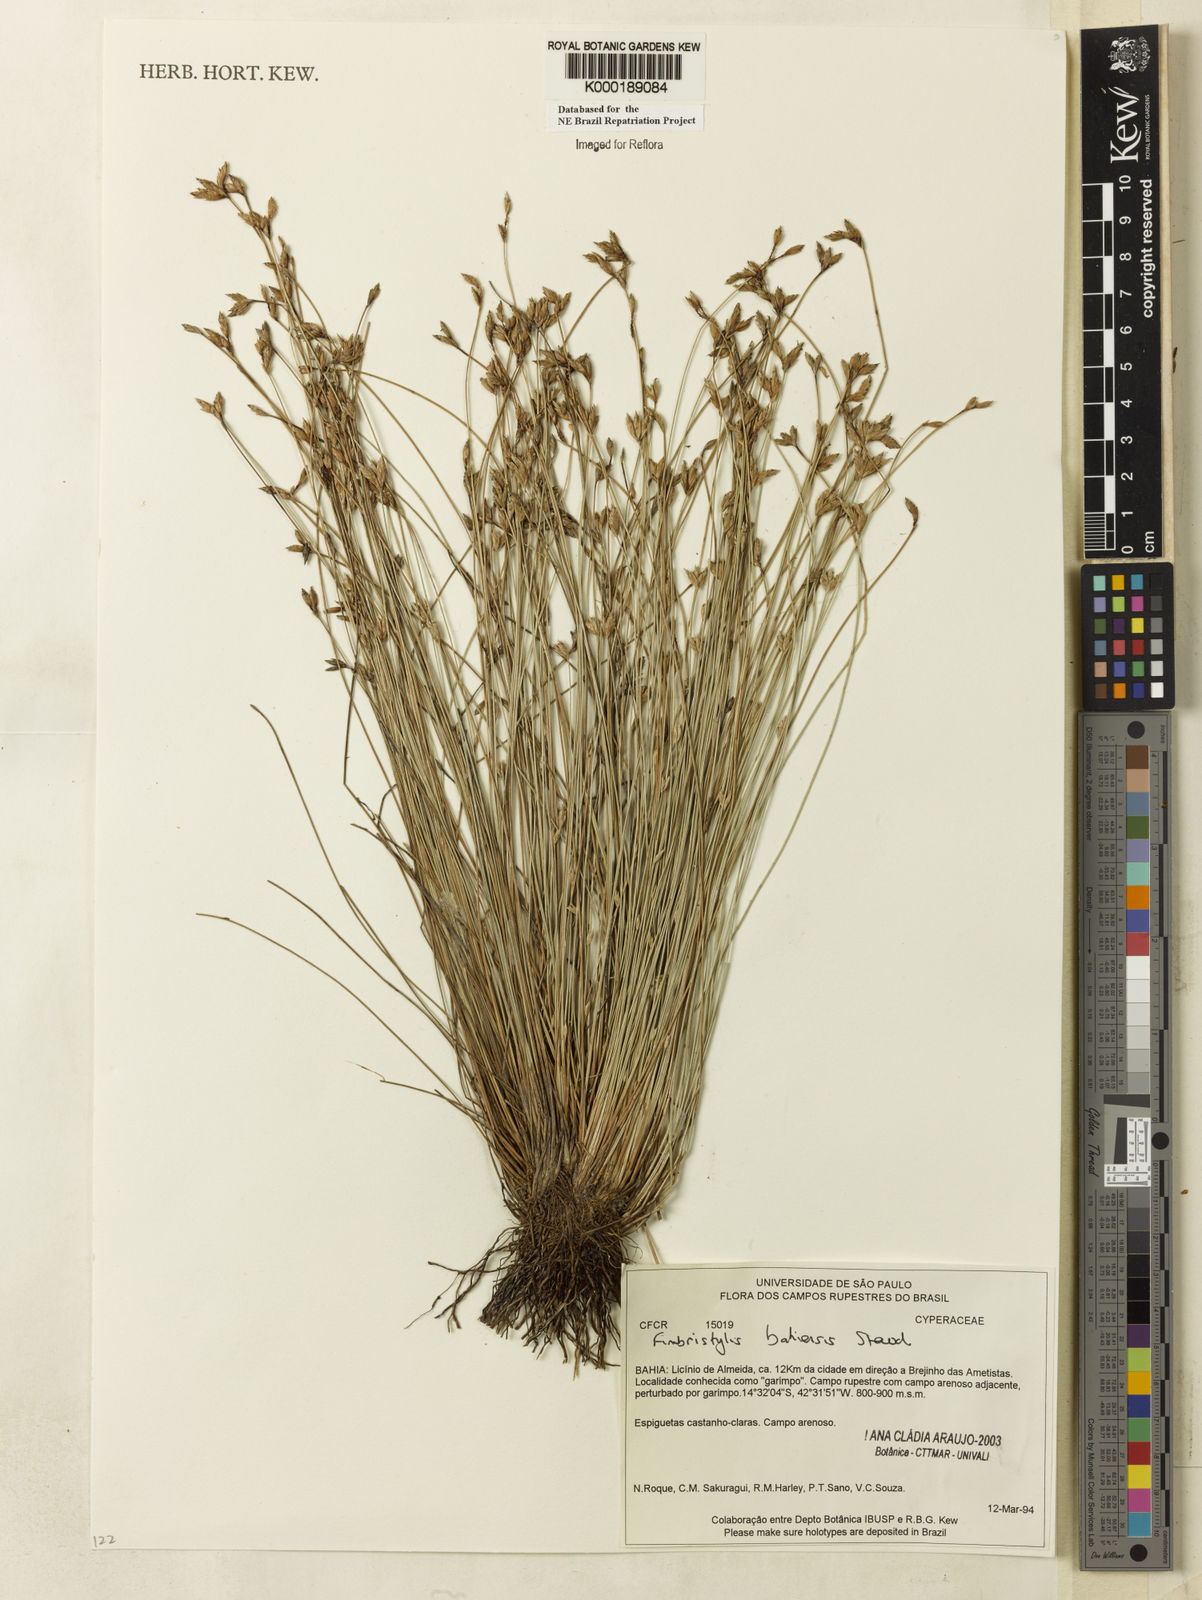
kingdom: Plantae
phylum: Tracheophyta
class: Liliopsida
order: Poales
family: Cyperaceae
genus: Fimbristylis
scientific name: Fimbristylis bahiensis
